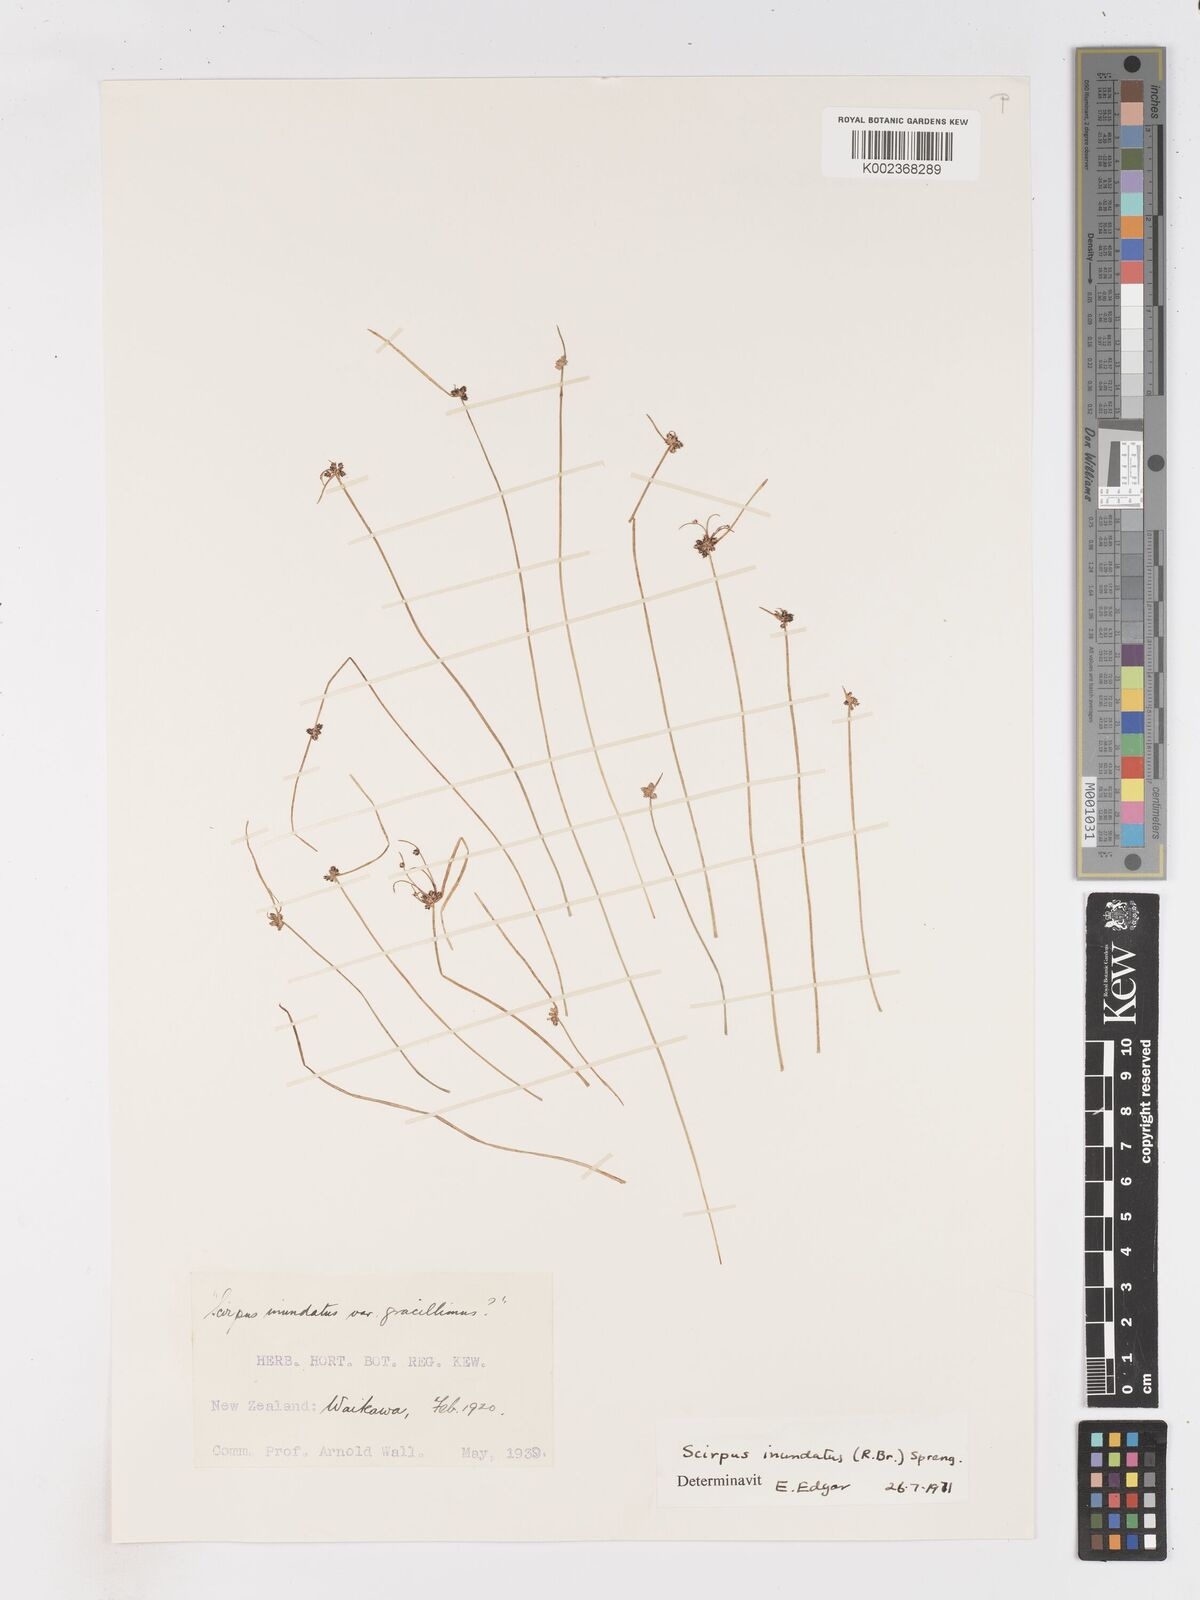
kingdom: Plantae
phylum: Tracheophyta
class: Liliopsida
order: Poales
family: Cyperaceae
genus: Isolepis
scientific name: Isolepis inundata
